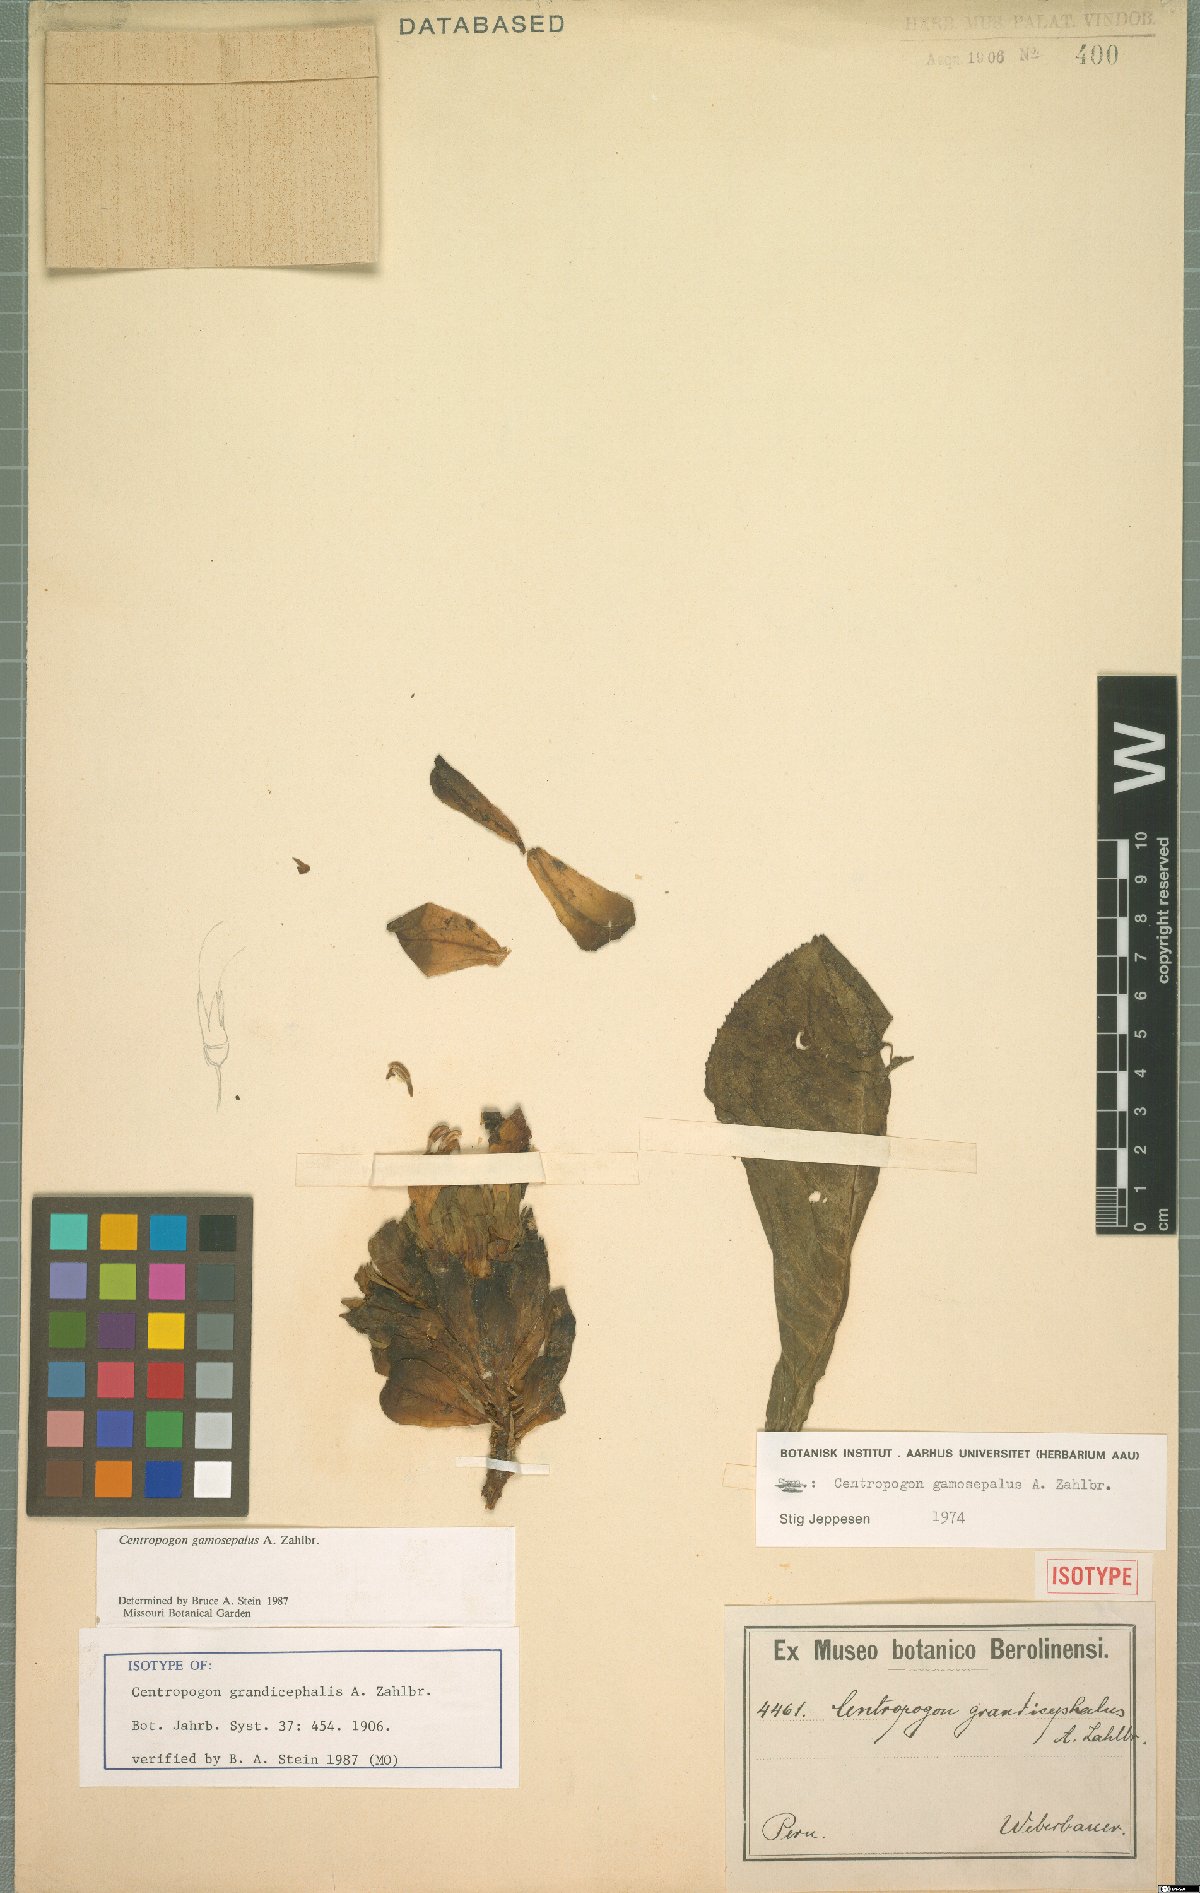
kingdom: Plantae
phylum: Tracheophyta
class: Magnoliopsida
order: Asterales
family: Campanulaceae
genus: Centropogon
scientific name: Centropogon gamosepalus
